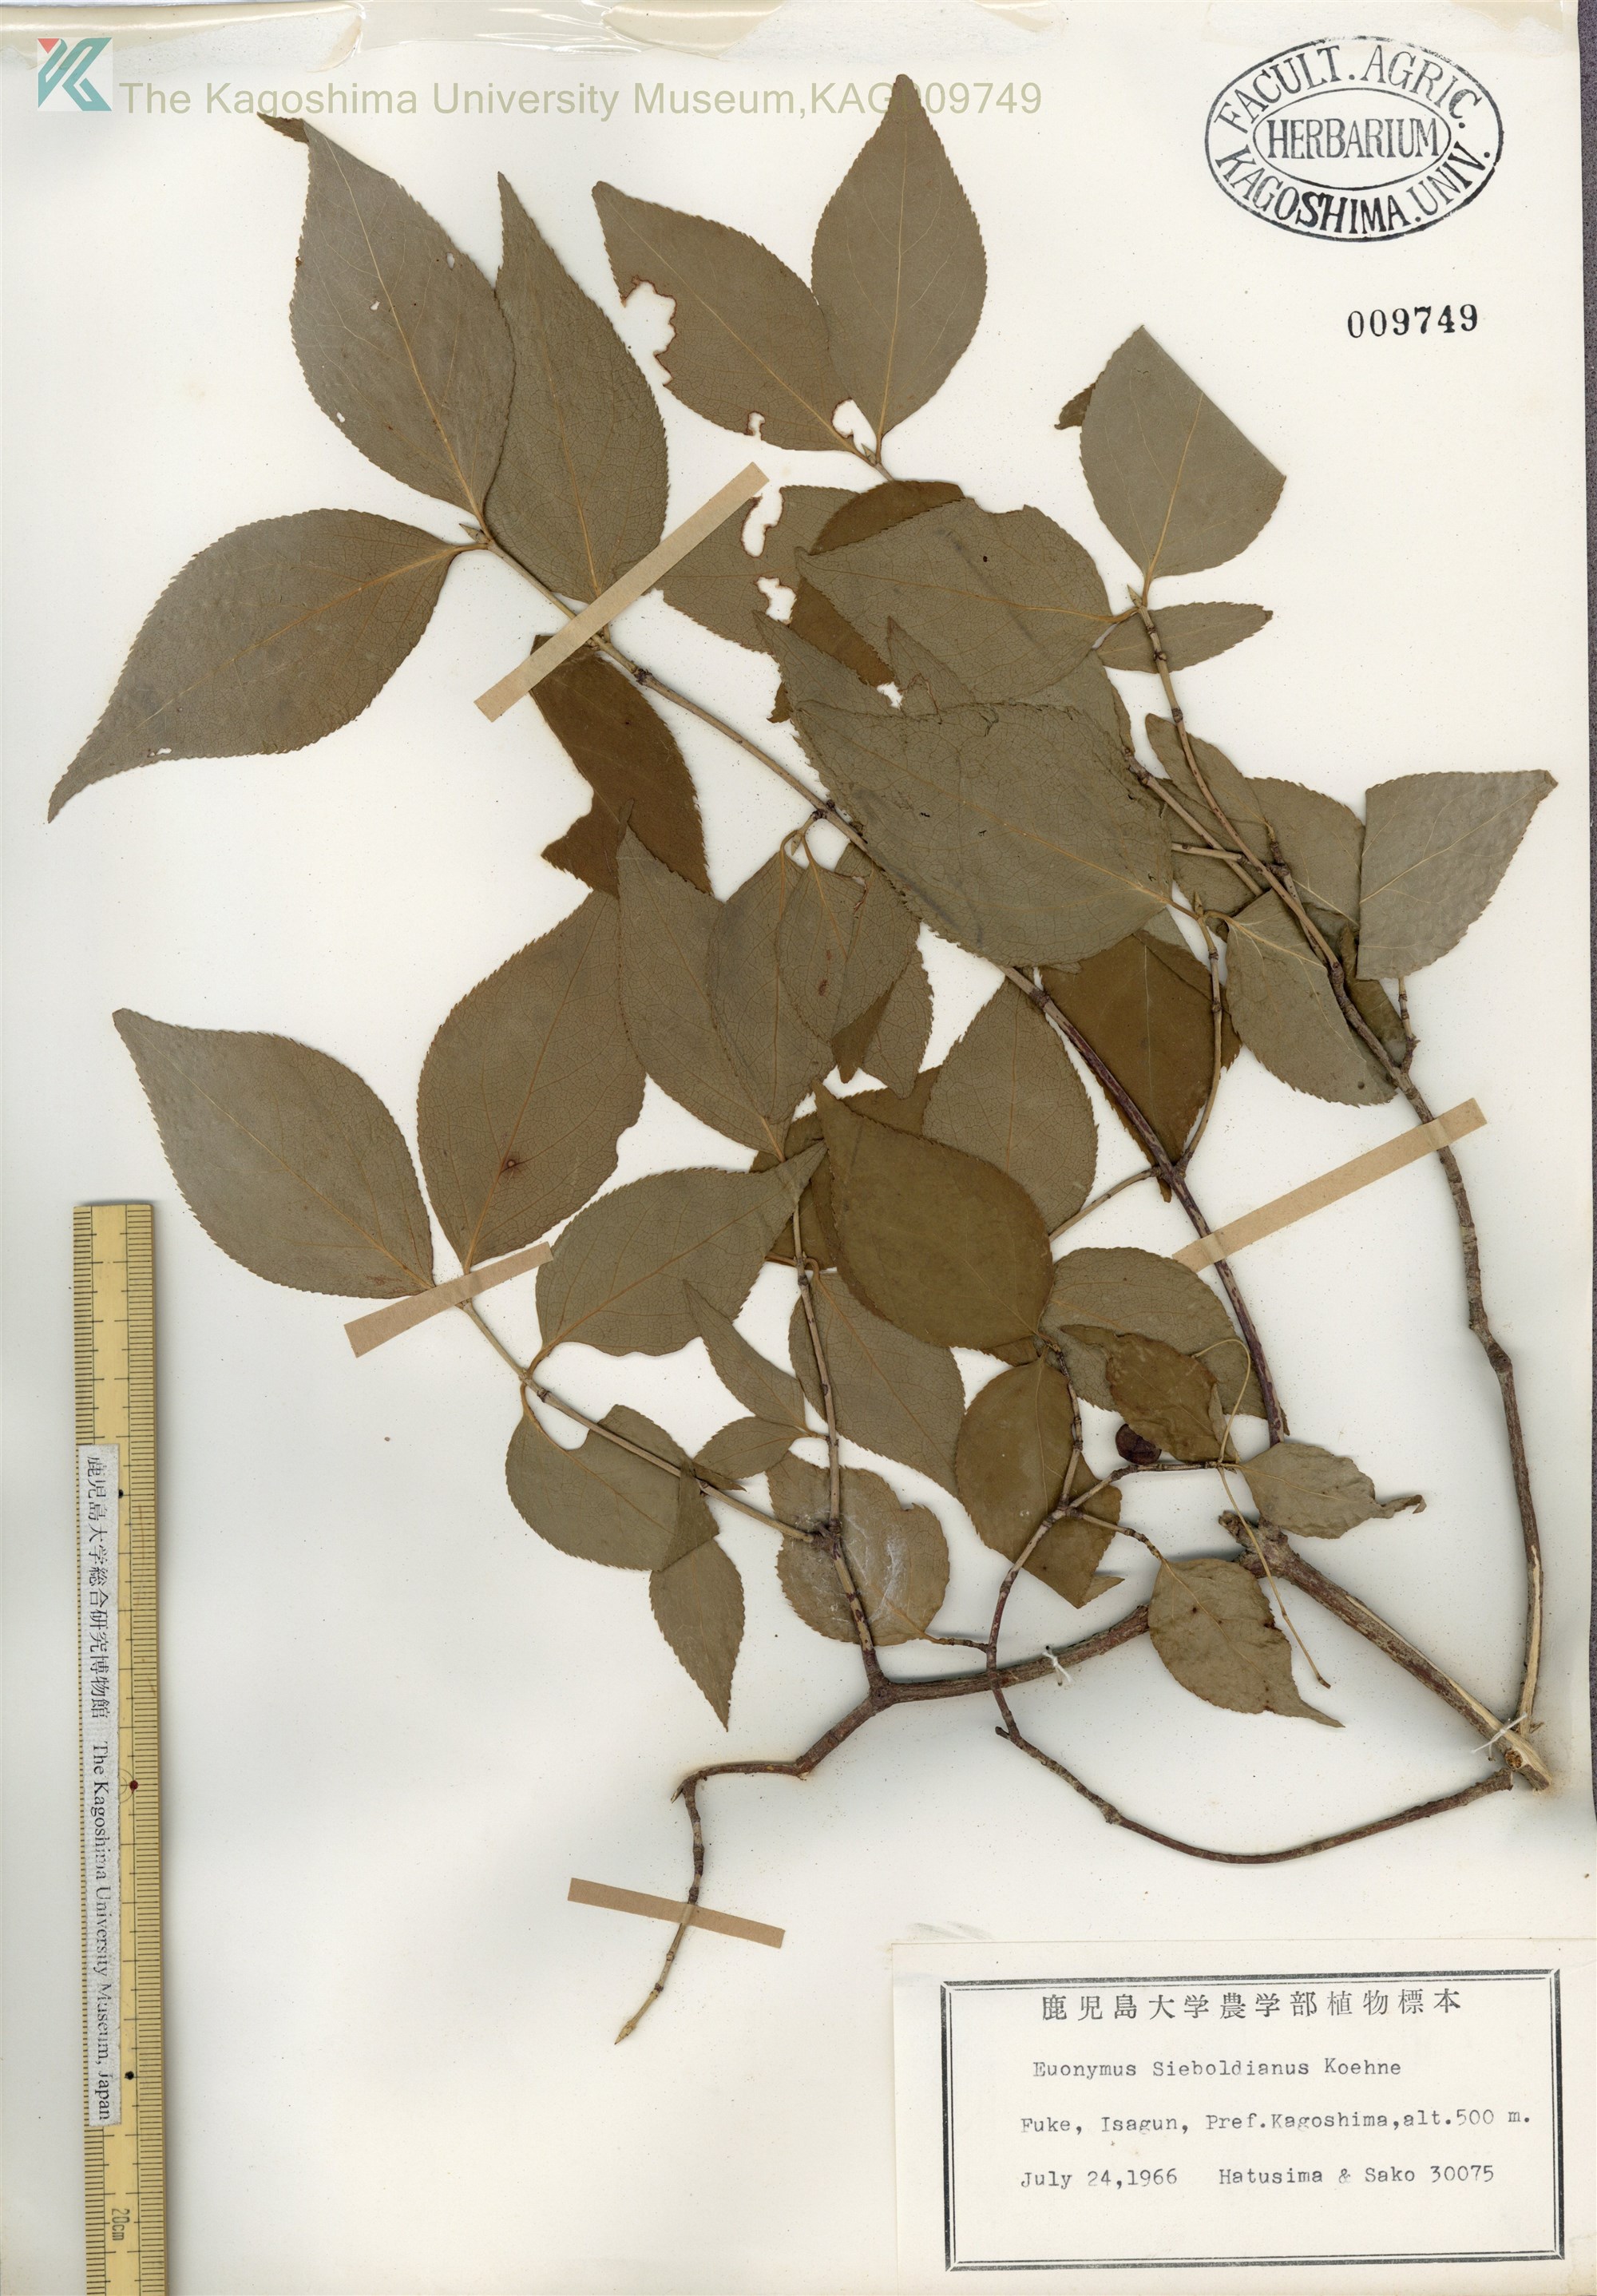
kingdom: Plantae
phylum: Tracheophyta
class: Magnoliopsida
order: Celastrales
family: Celastraceae
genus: Euonymus
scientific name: Euonymus oxyphyllus
